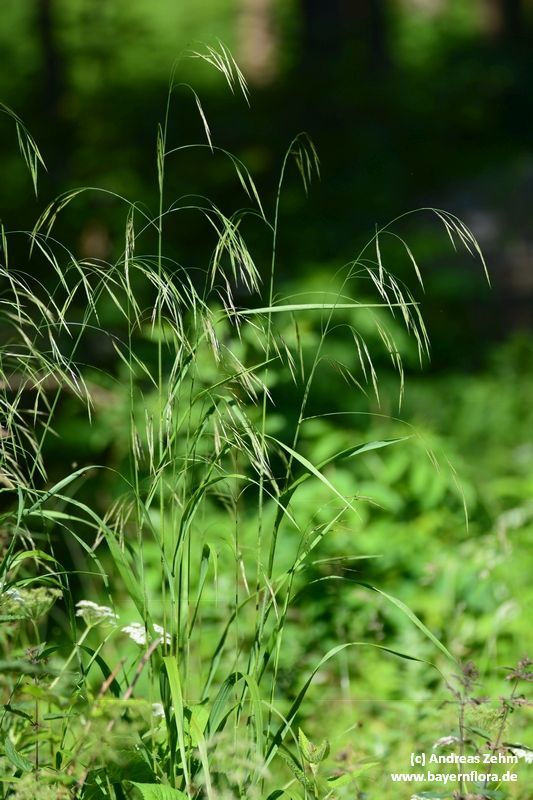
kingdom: Plantae
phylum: Tracheophyta
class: Liliopsida
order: Poales
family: Poaceae
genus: Bromus
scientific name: Bromus ramosus
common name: Hairy brome
